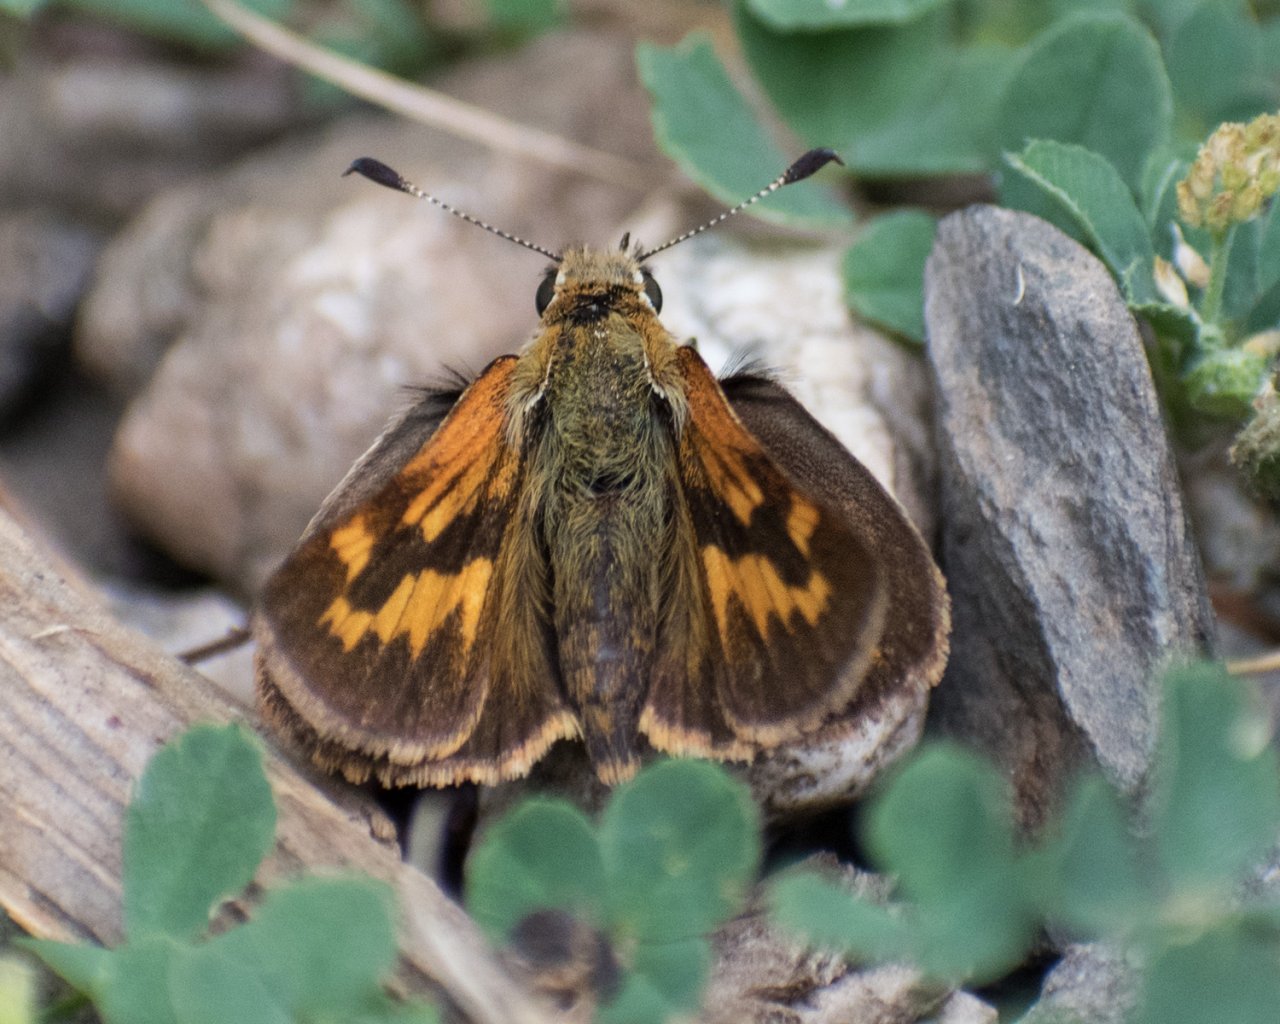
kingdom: Animalia
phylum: Arthropoda
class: Insecta
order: Lepidoptera
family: Hesperiidae
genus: Ochlodes
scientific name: Ochlodes sylvanoides
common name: Woodland Skipper
